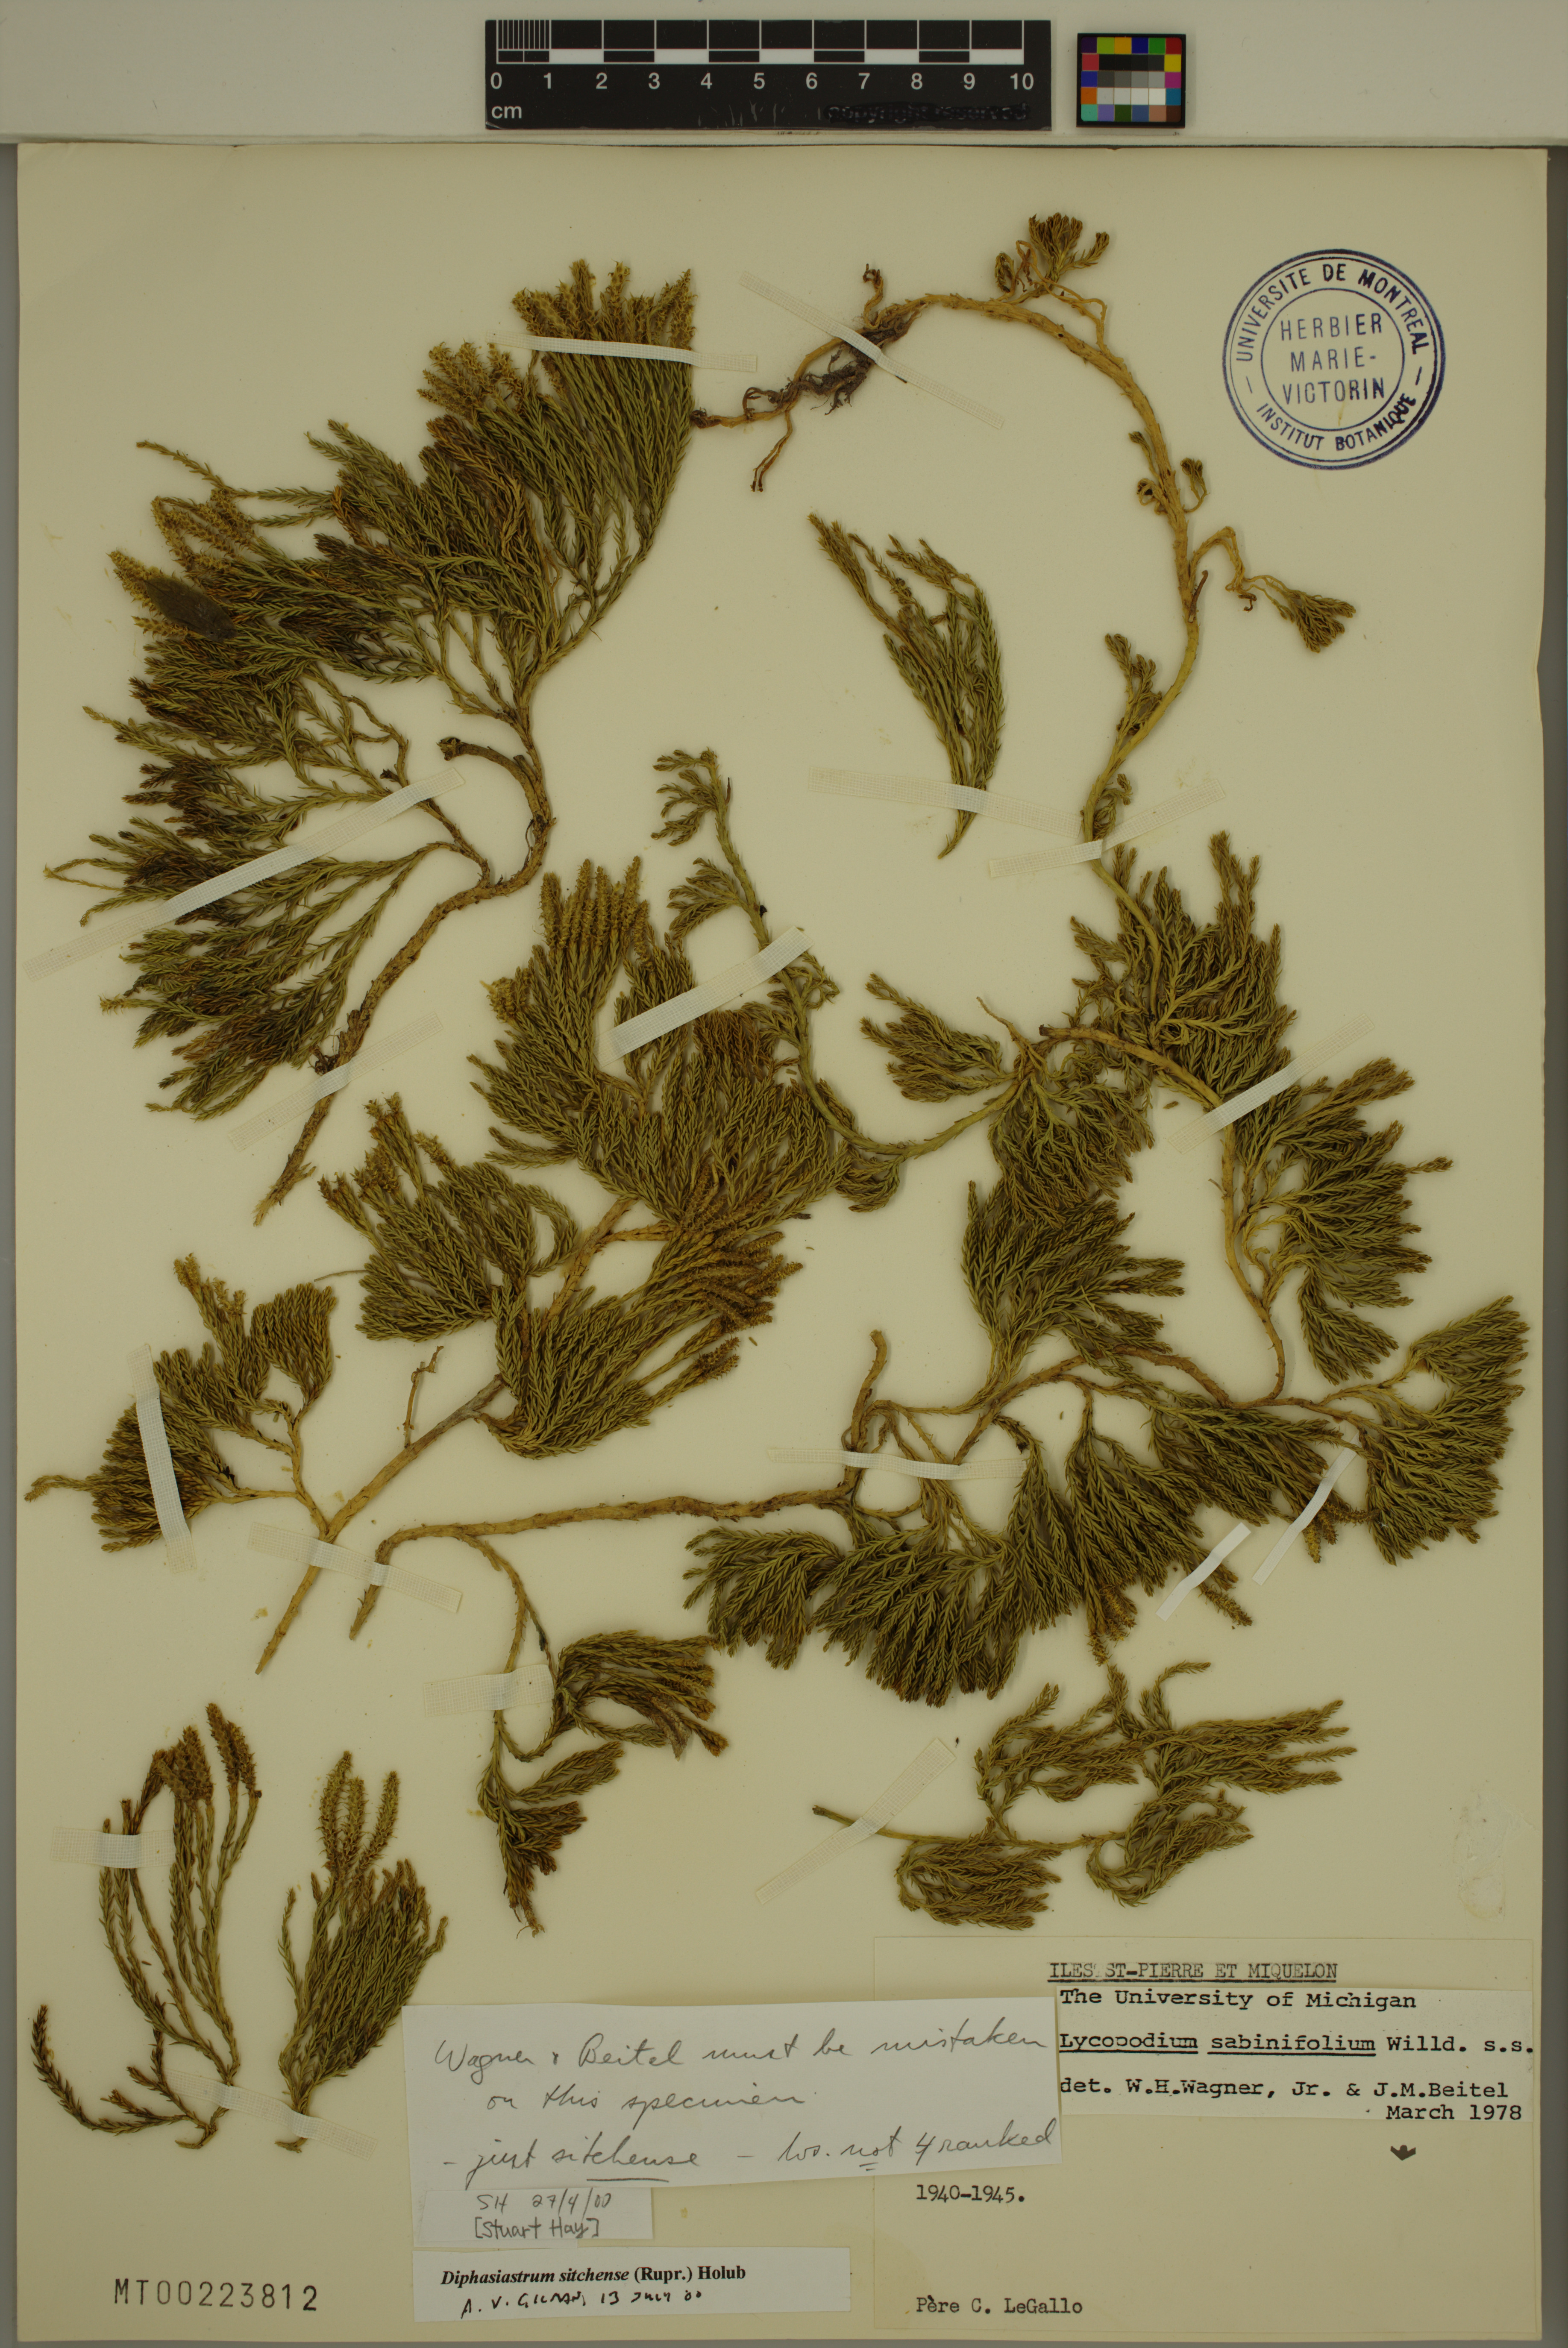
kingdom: Plantae
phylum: Tracheophyta
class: Lycopodiopsida
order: Lycopodiales
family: Lycopodiaceae
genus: Diphasiastrum
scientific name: Diphasiastrum sitchense
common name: Alaska clubmoss
